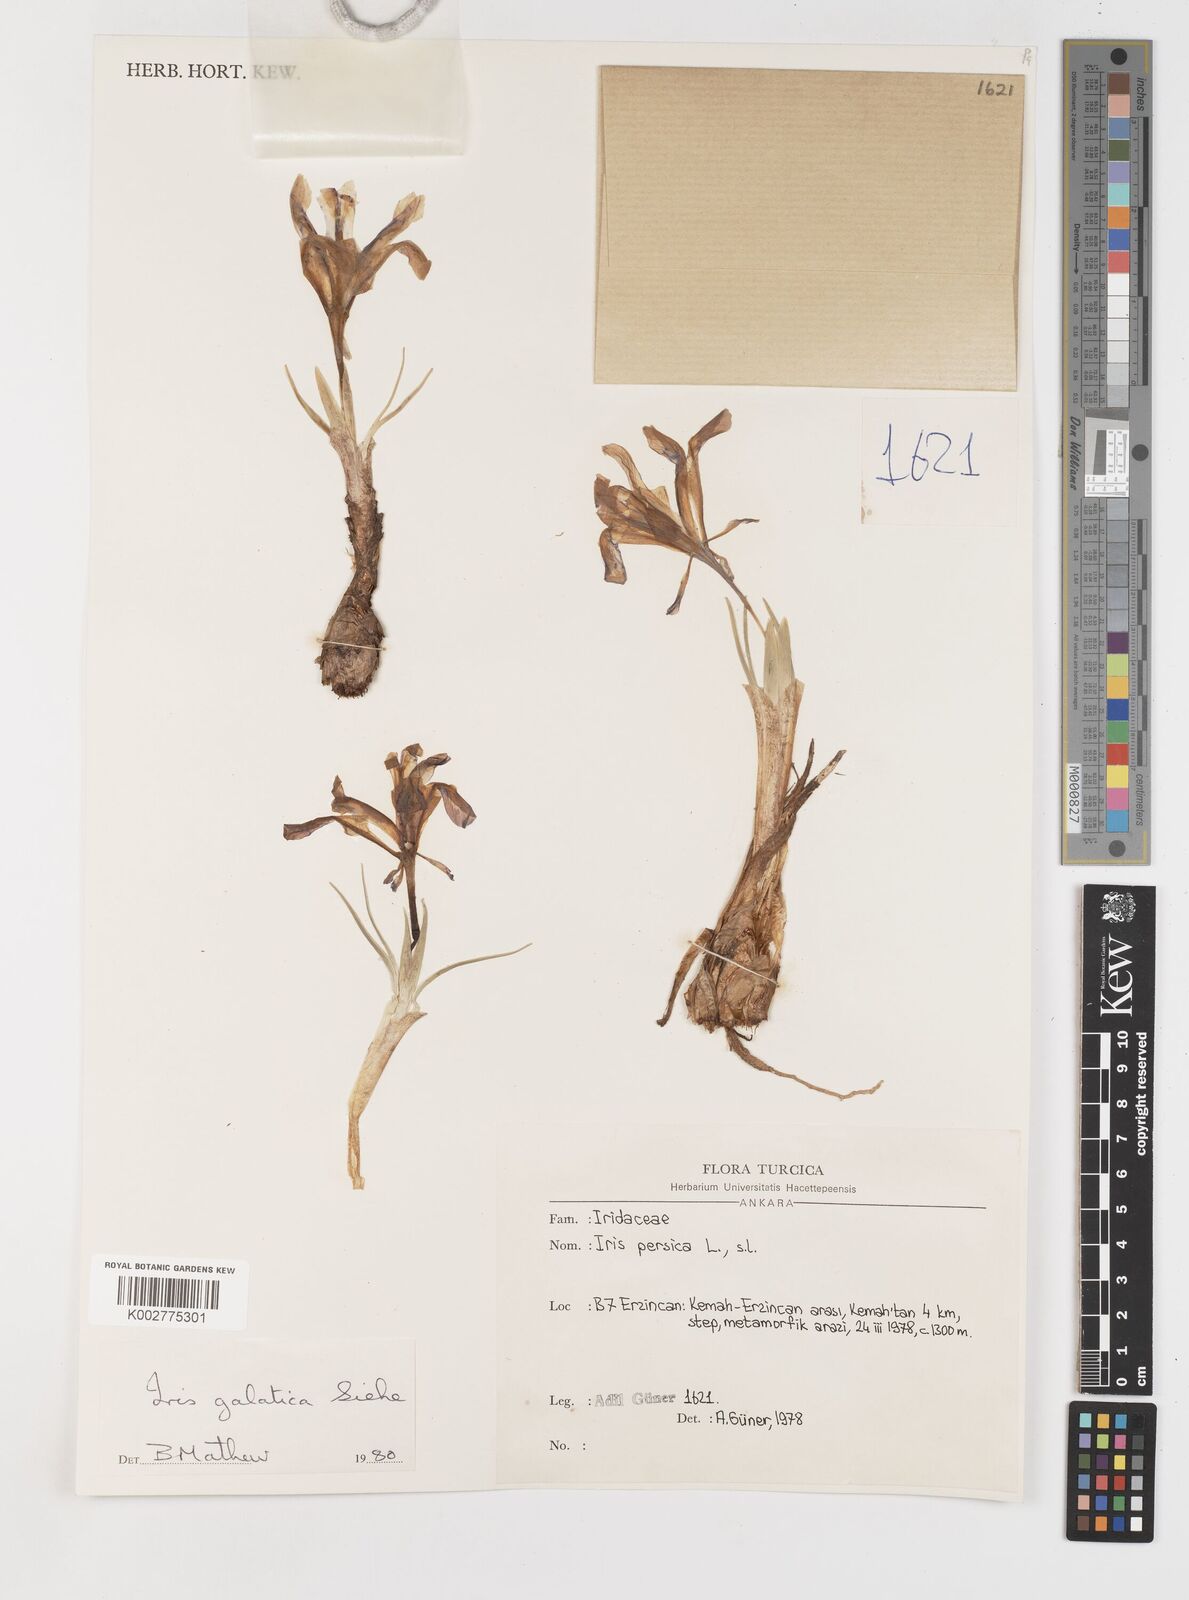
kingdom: Plantae
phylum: Tracheophyta
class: Liliopsida
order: Asparagales
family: Iridaceae
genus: Iris
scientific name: Iris galatica
